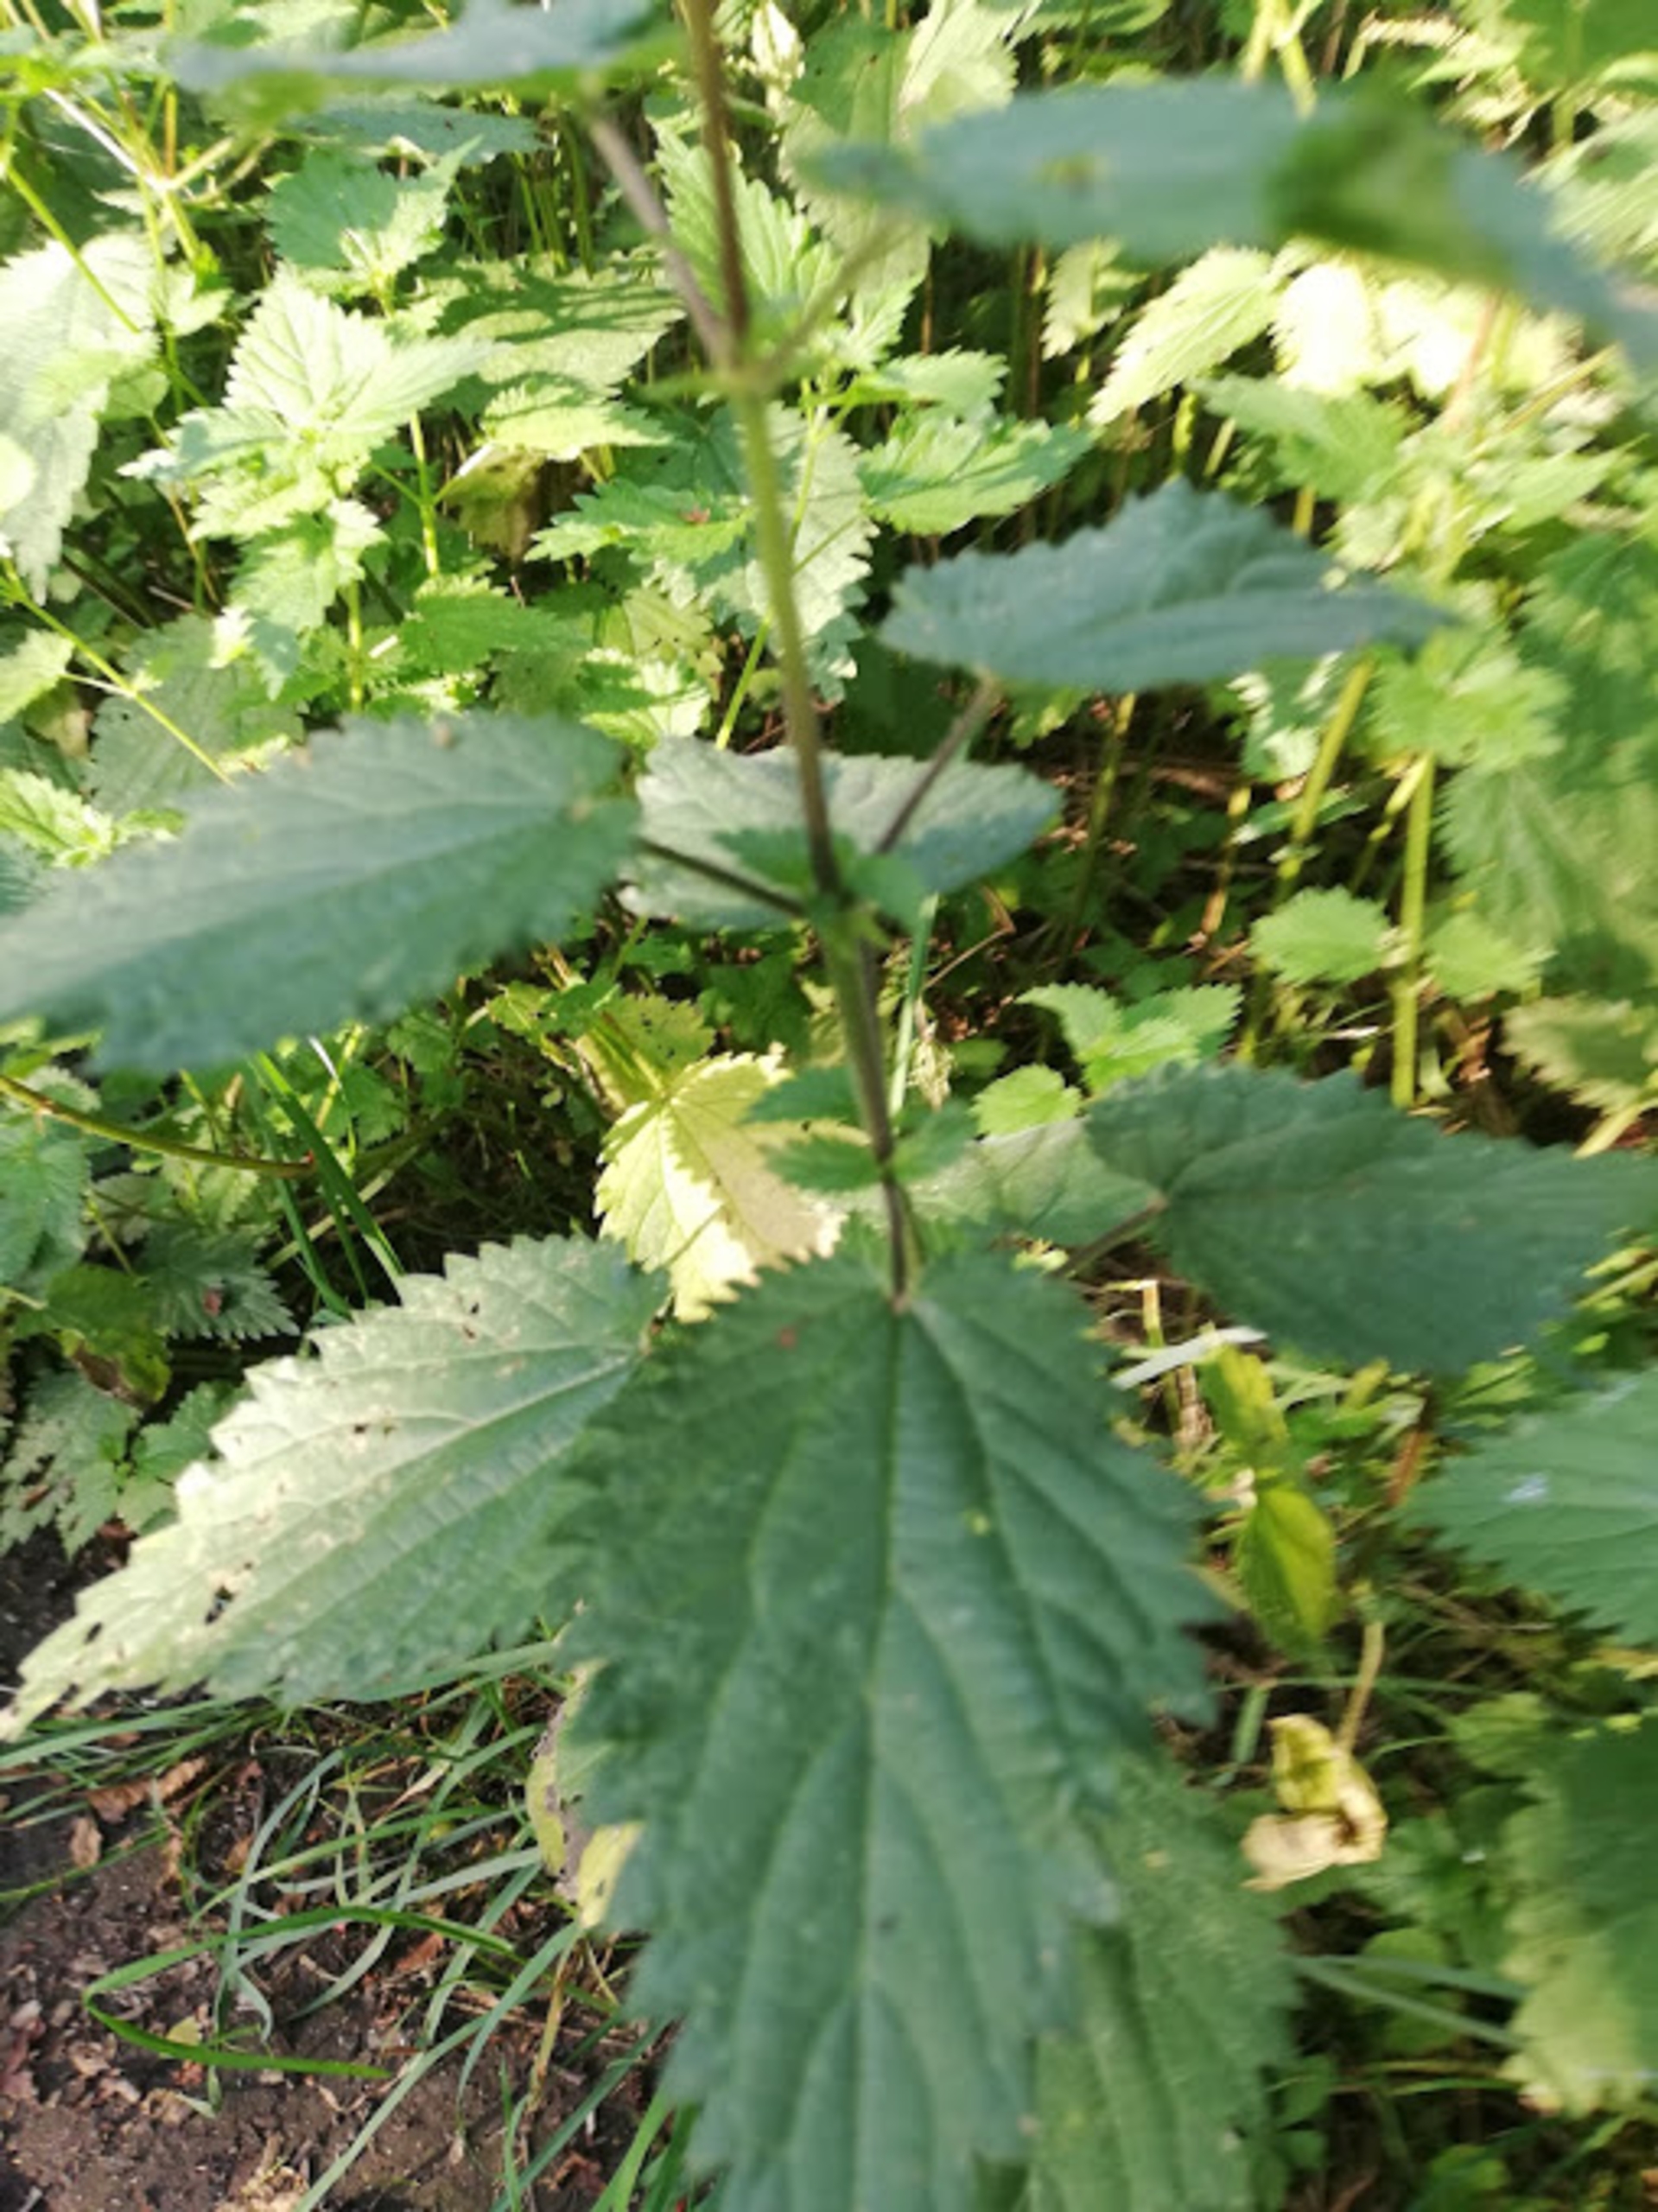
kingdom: Plantae
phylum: Tracheophyta
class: Magnoliopsida
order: Rosales
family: Urticaceae
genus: Urtica
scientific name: Urtica dioica
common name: Stor nælde
